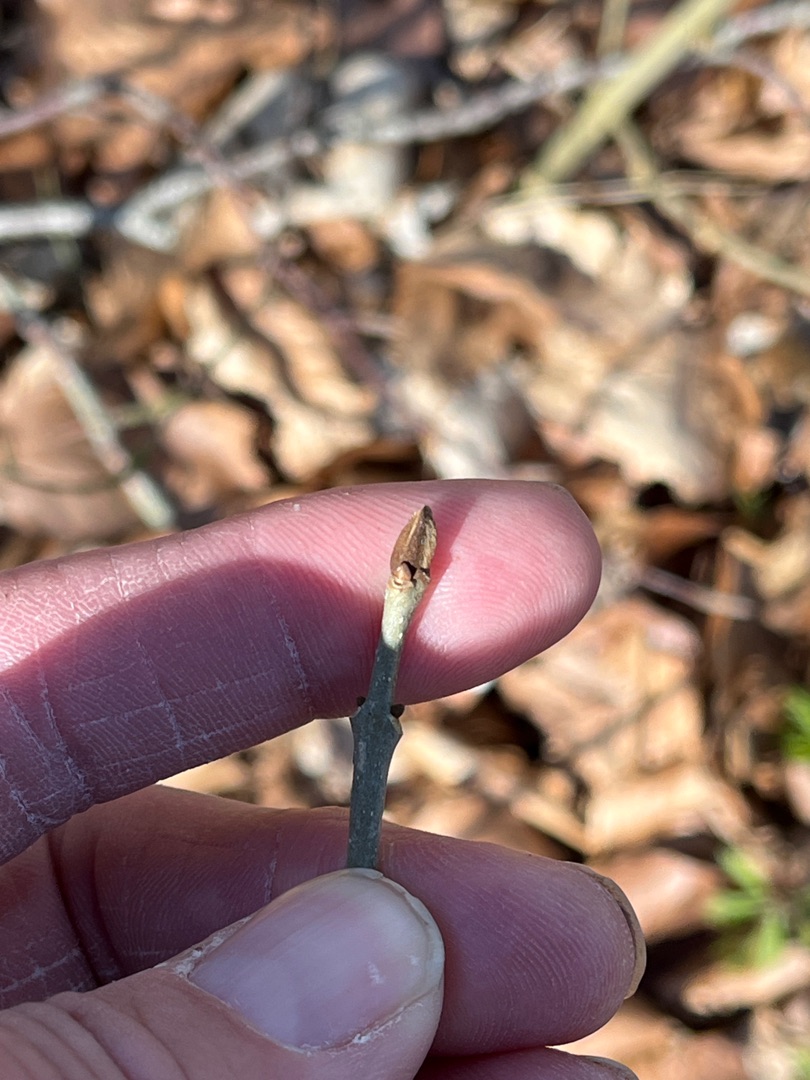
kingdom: Plantae
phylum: Tracheophyta
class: Magnoliopsida
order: Lamiales
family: Oleaceae
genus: Fraxinus
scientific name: Fraxinus excelsior
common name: Ask
